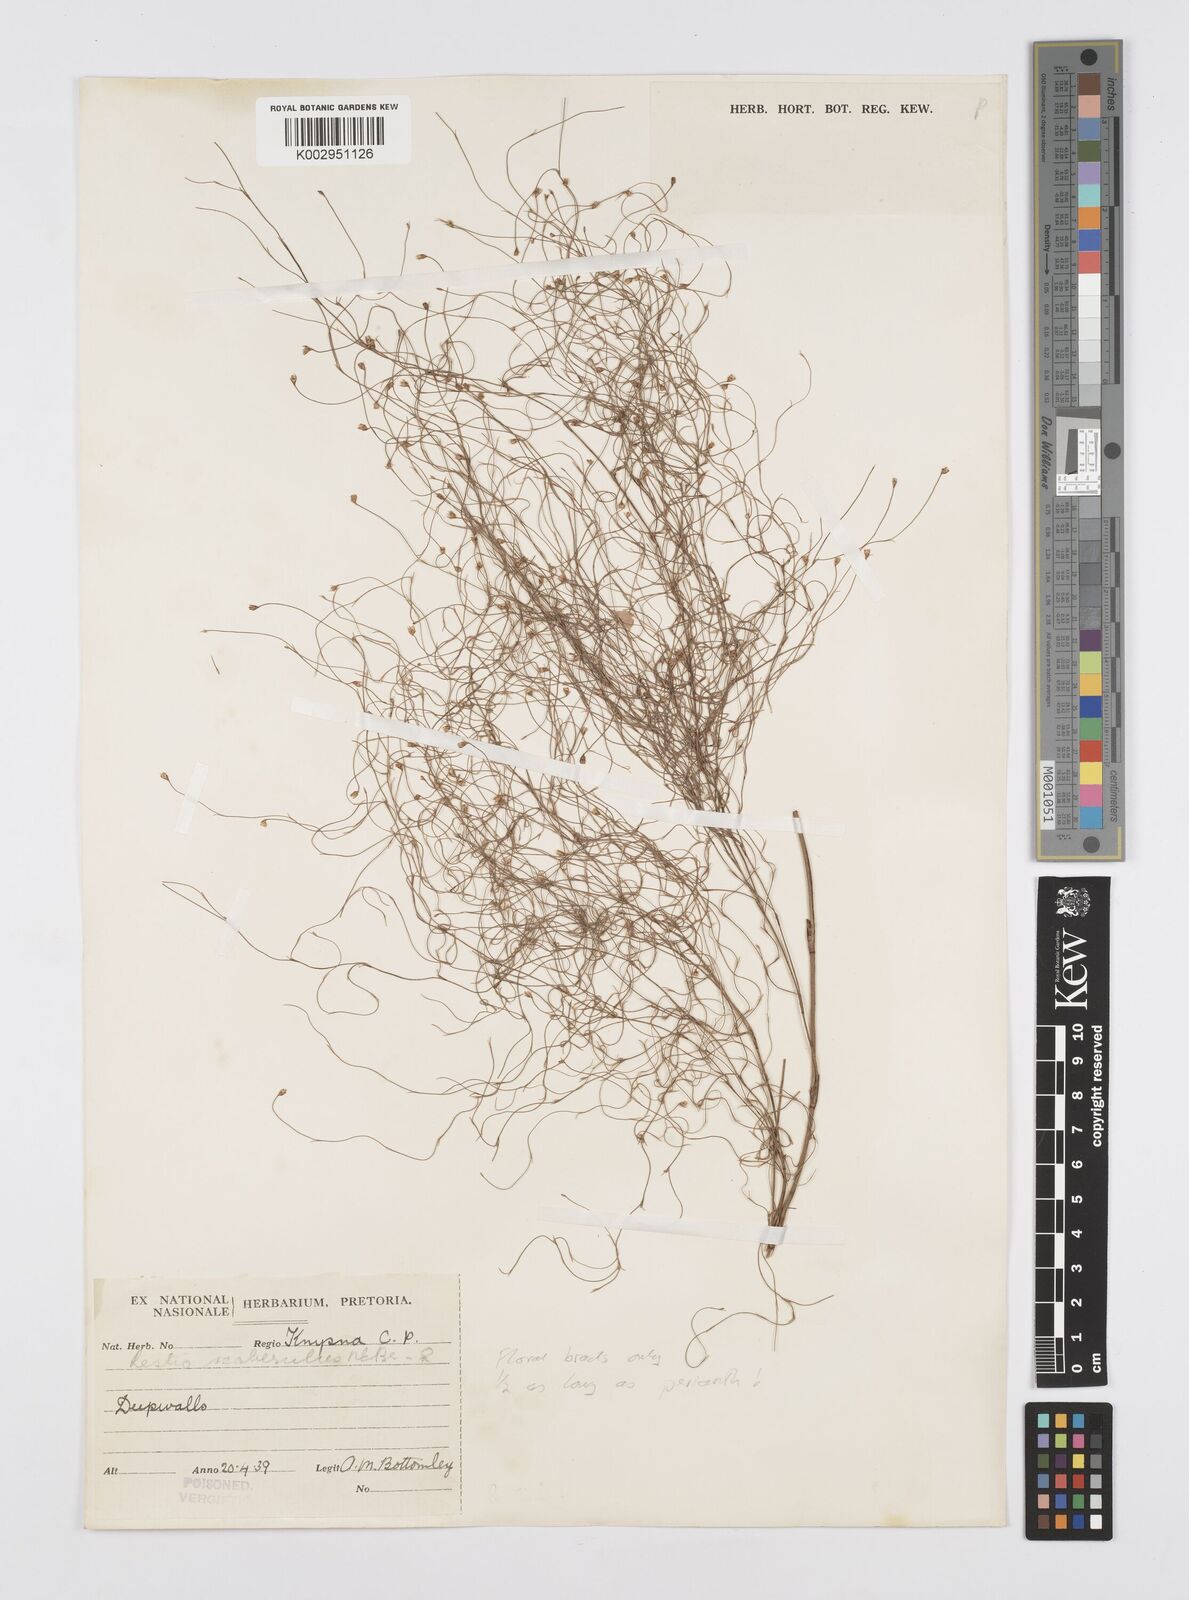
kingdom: Plantae
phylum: Tracheophyta
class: Liliopsida
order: Poales
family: Restionaceae
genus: Restio
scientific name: Restio fourcadei
